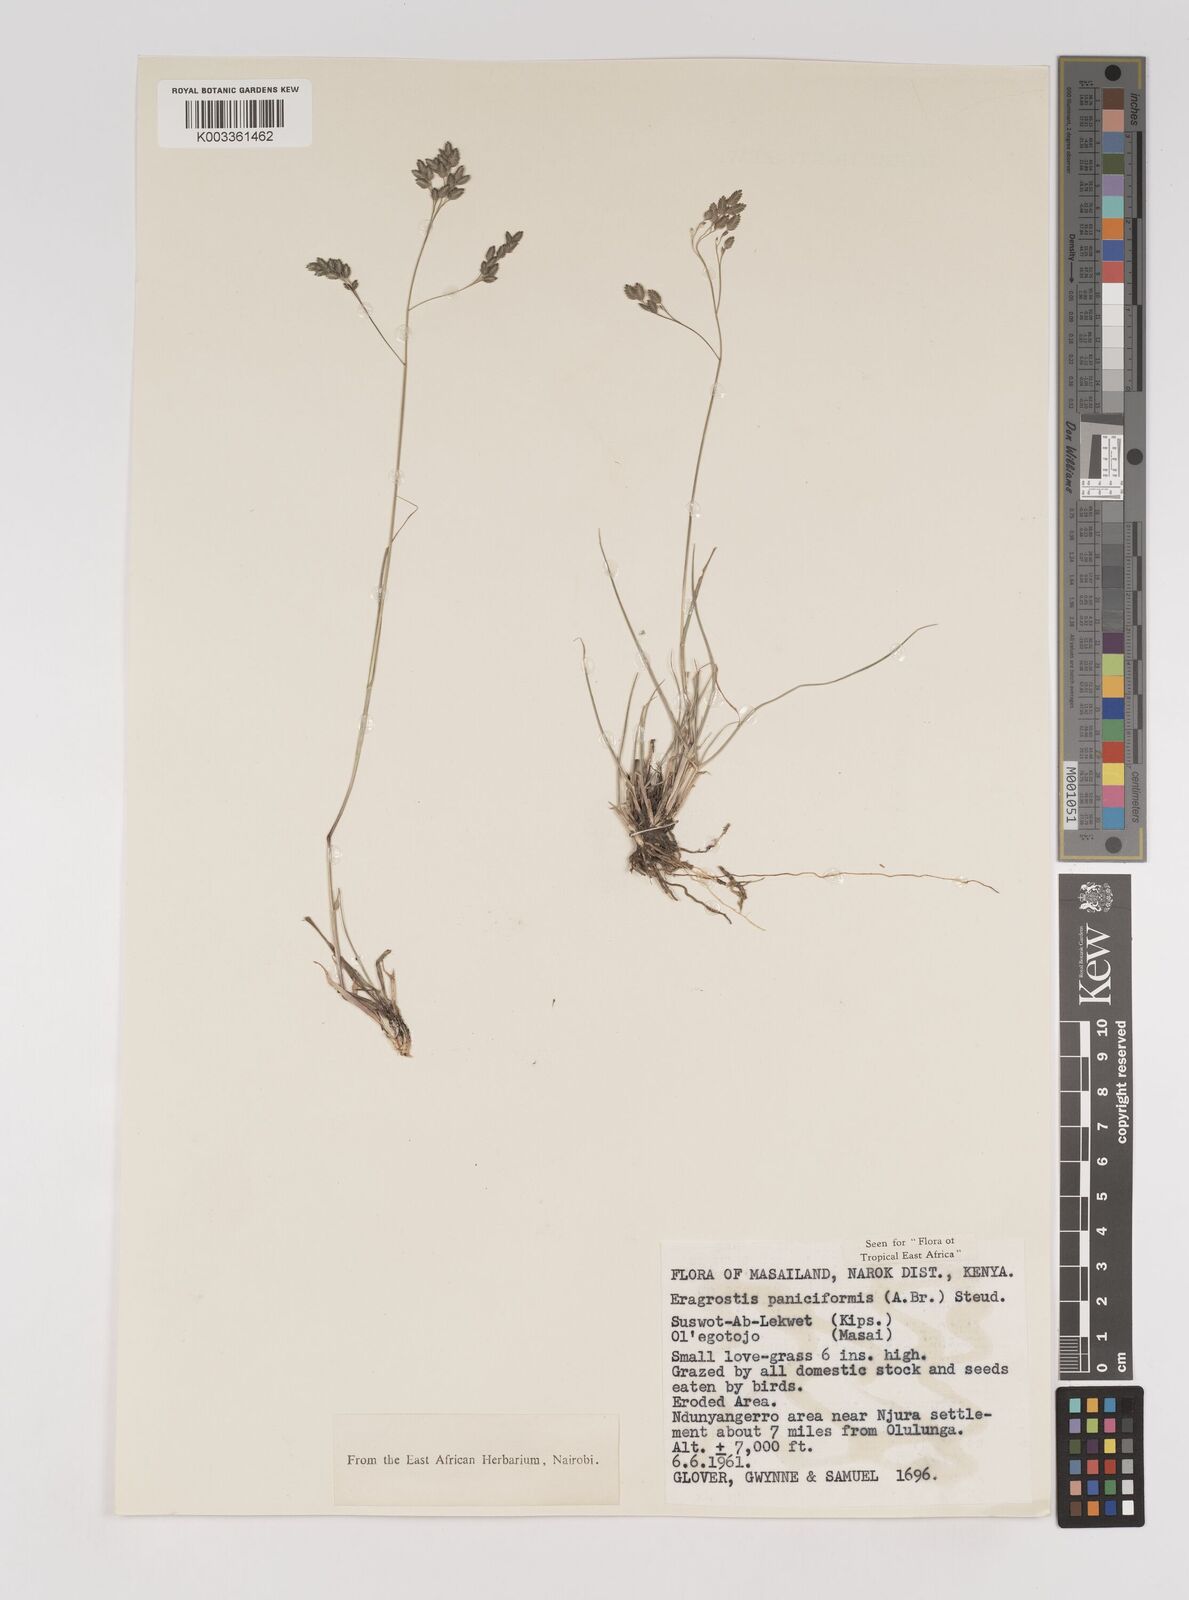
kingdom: Plantae
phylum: Tracheophyta
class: Liliopsida
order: Poales
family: Poaceae
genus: Eragrostis
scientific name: Eragrostis paniciformis
